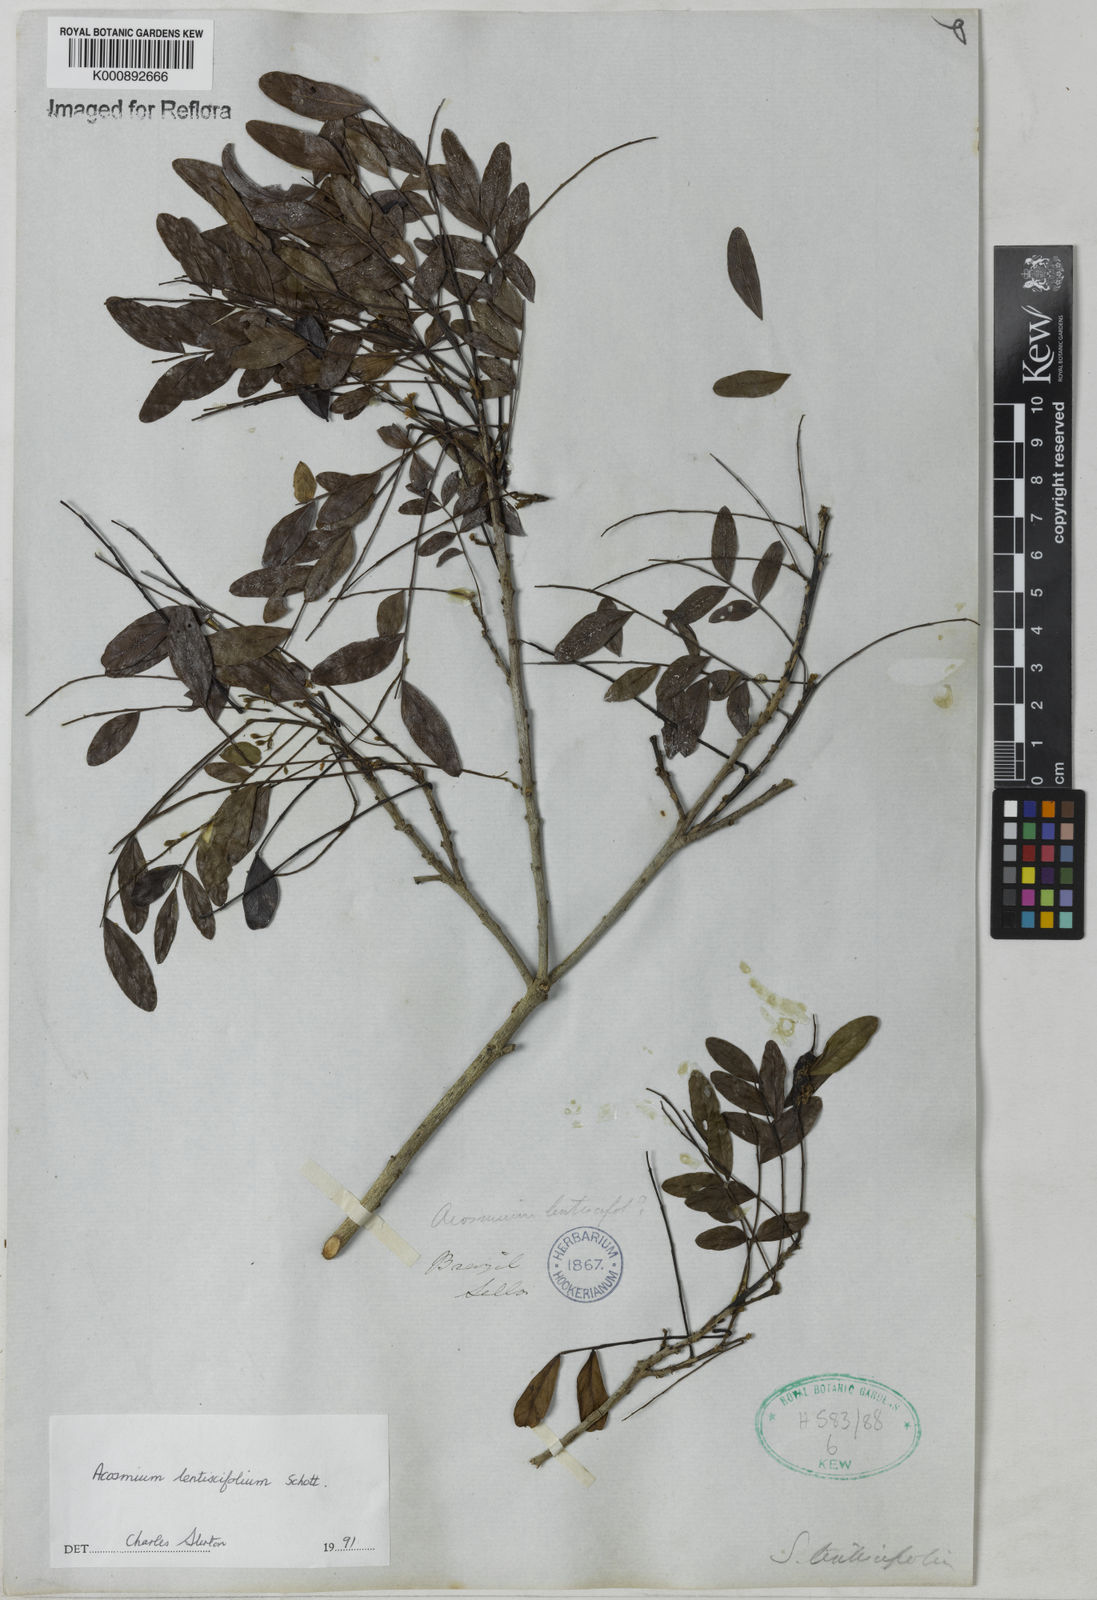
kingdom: Plantae
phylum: Tracheophyta
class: Magnoliopsida
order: Fabales
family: Fabaceae
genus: Acosmium
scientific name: Acosmium lentiscifolium
